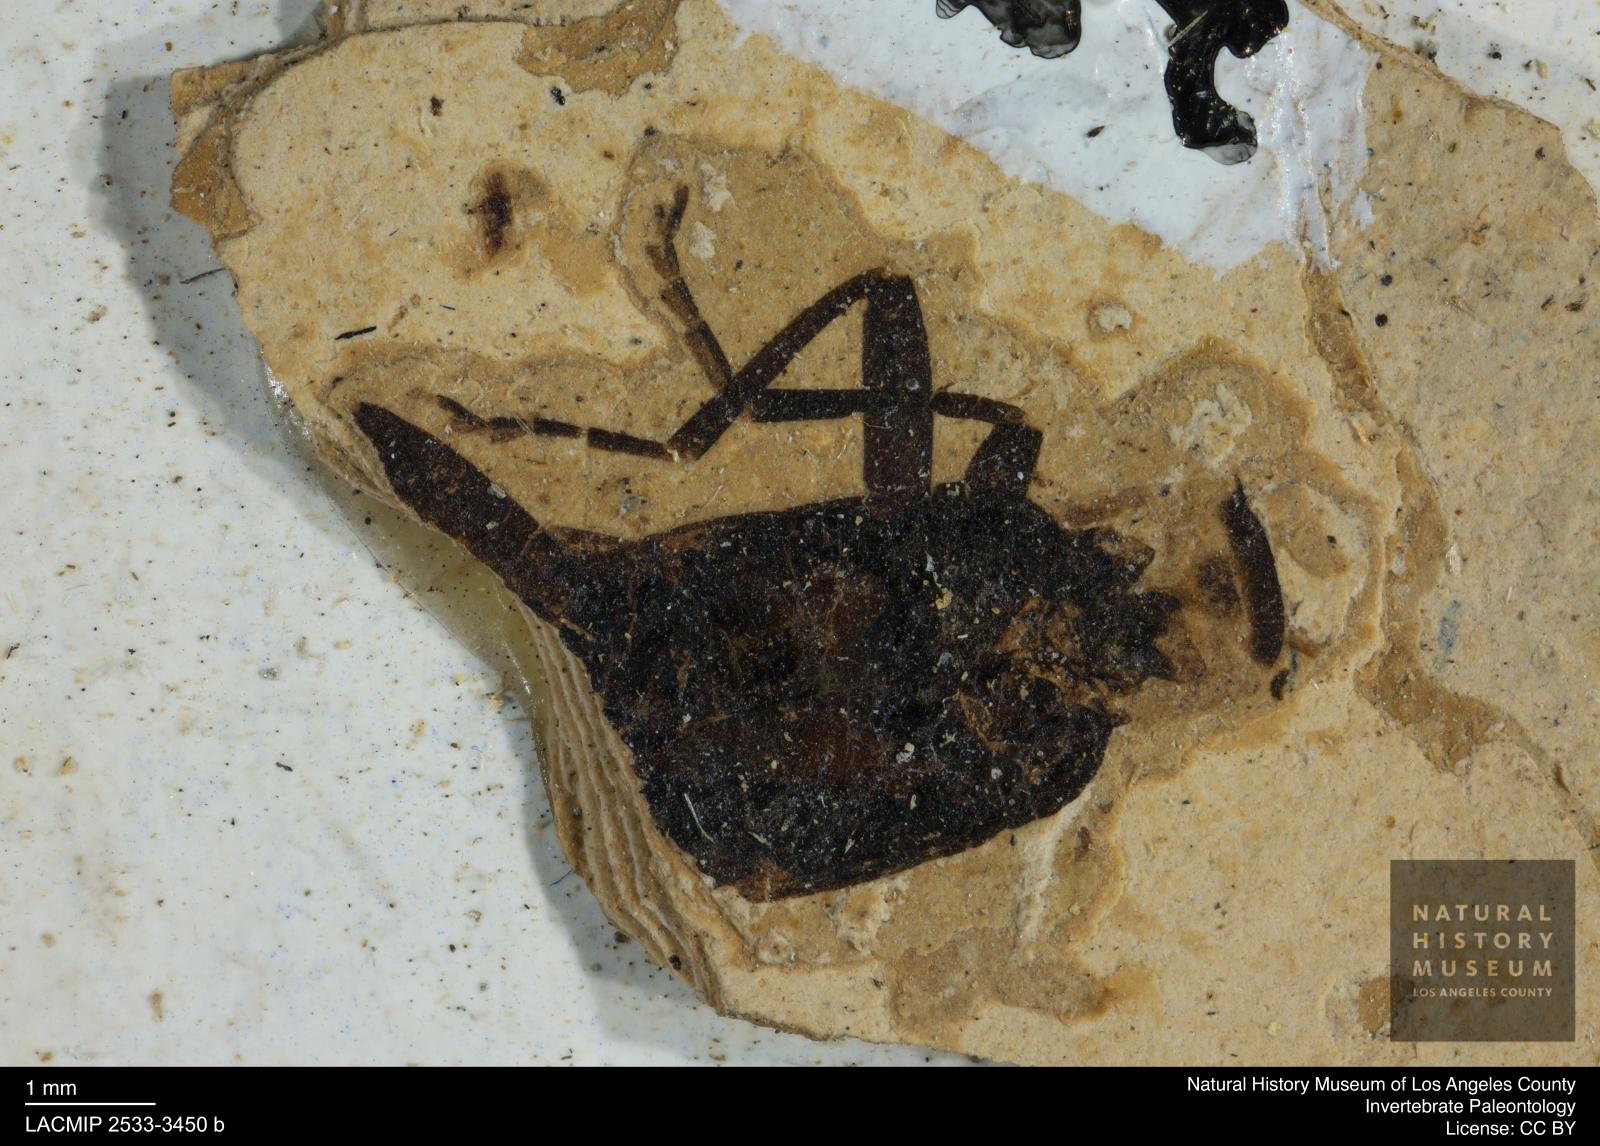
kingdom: Animalia
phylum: Arthropoda
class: Insecta
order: Coleoptera
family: Cantharidae
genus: Podistra
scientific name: Podistra quies
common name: Soldier beetle
